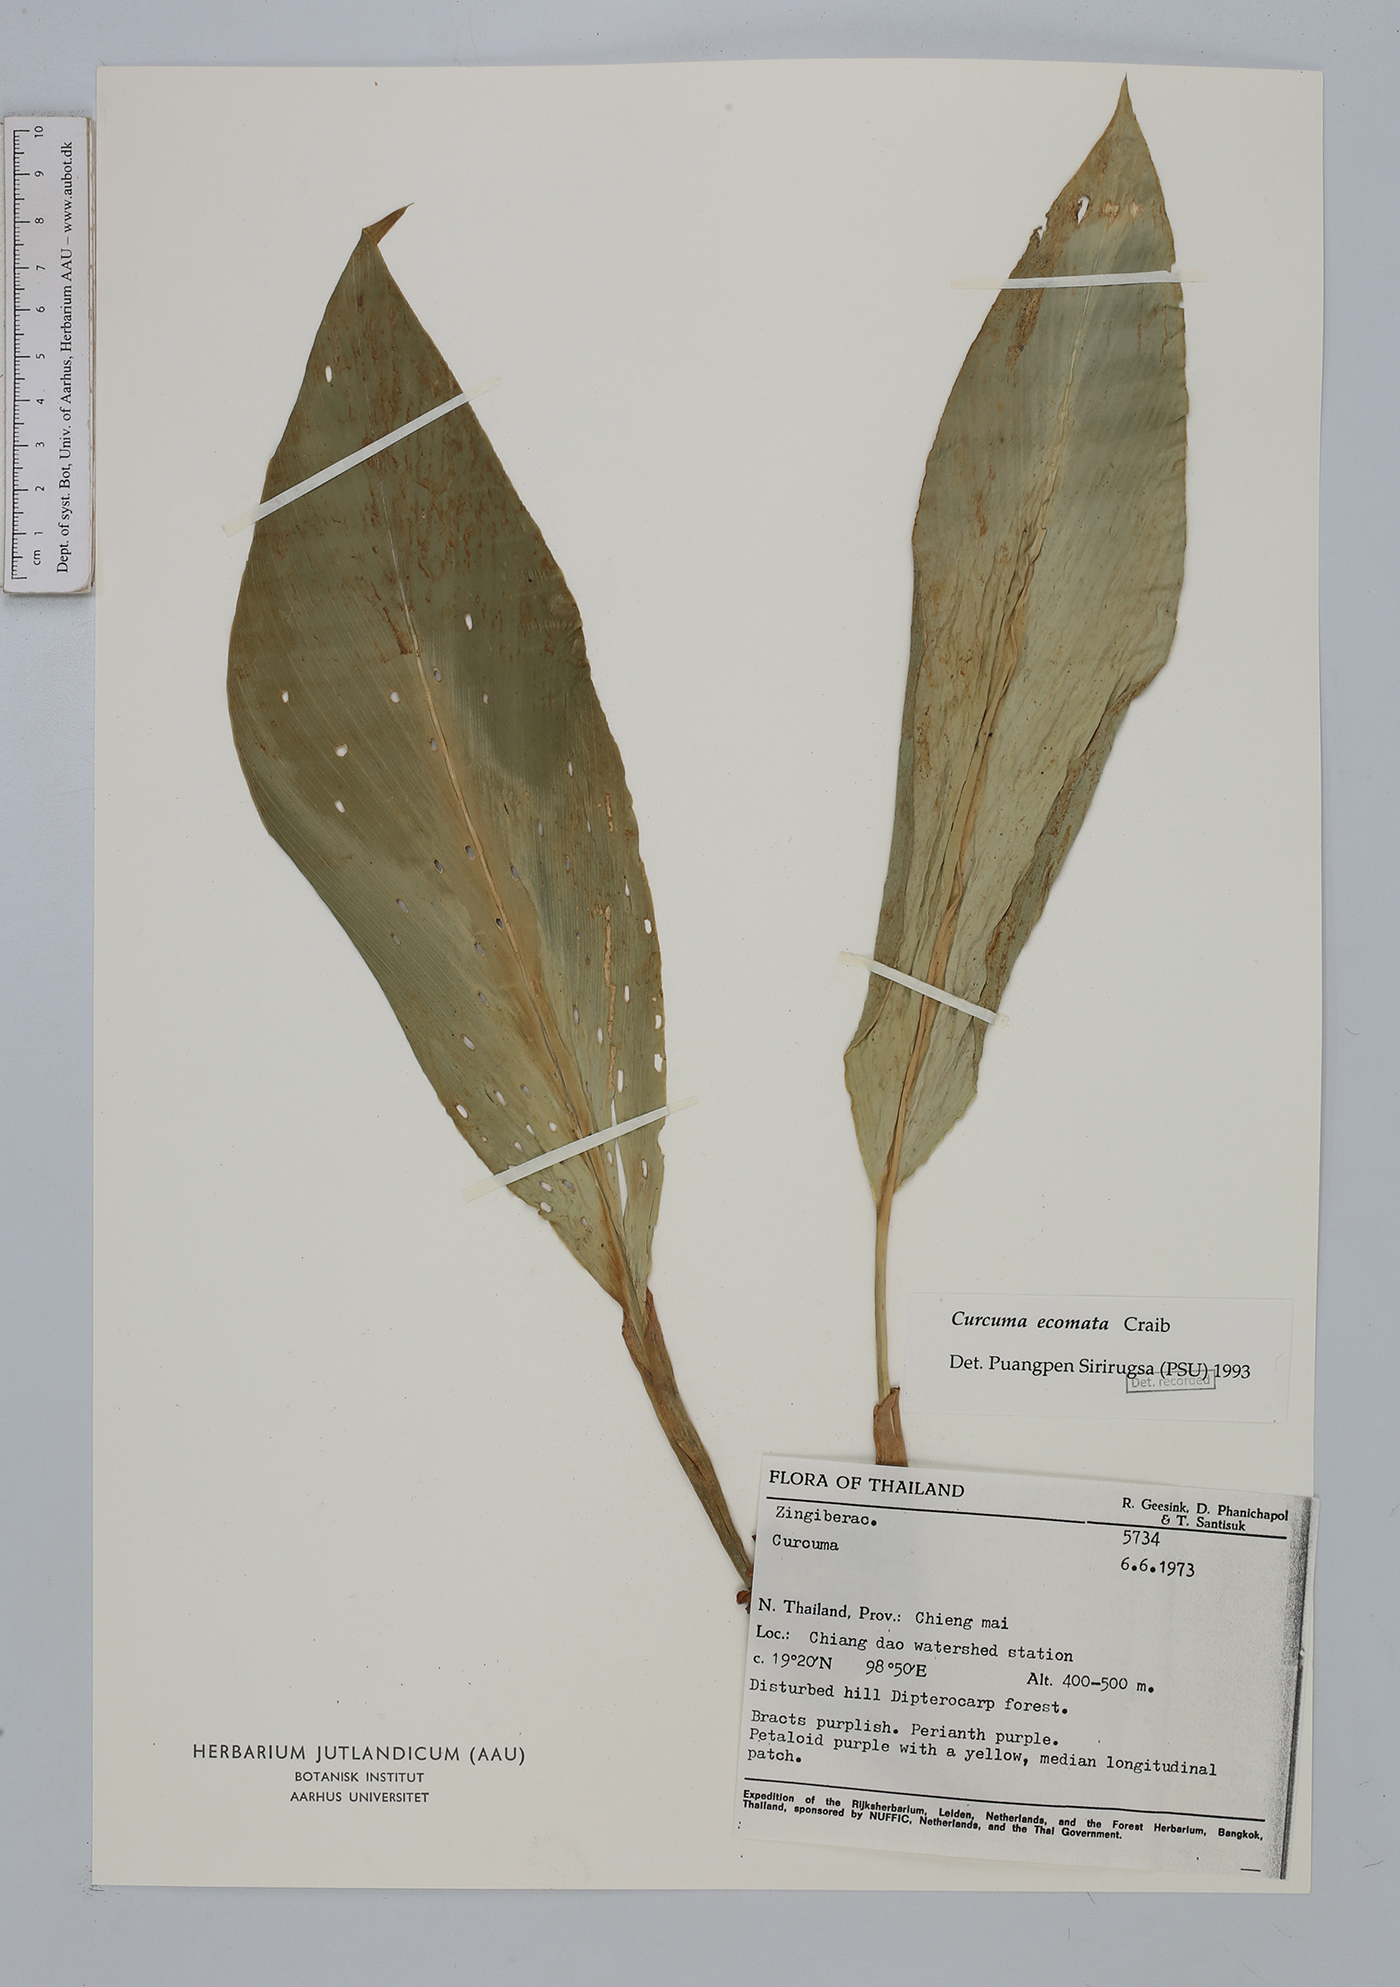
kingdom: Plantae
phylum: Tracheophyta
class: Liliopsida
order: Zingiberales
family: Zingiberaceae
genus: Curcuma
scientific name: Curcuma ecomata
